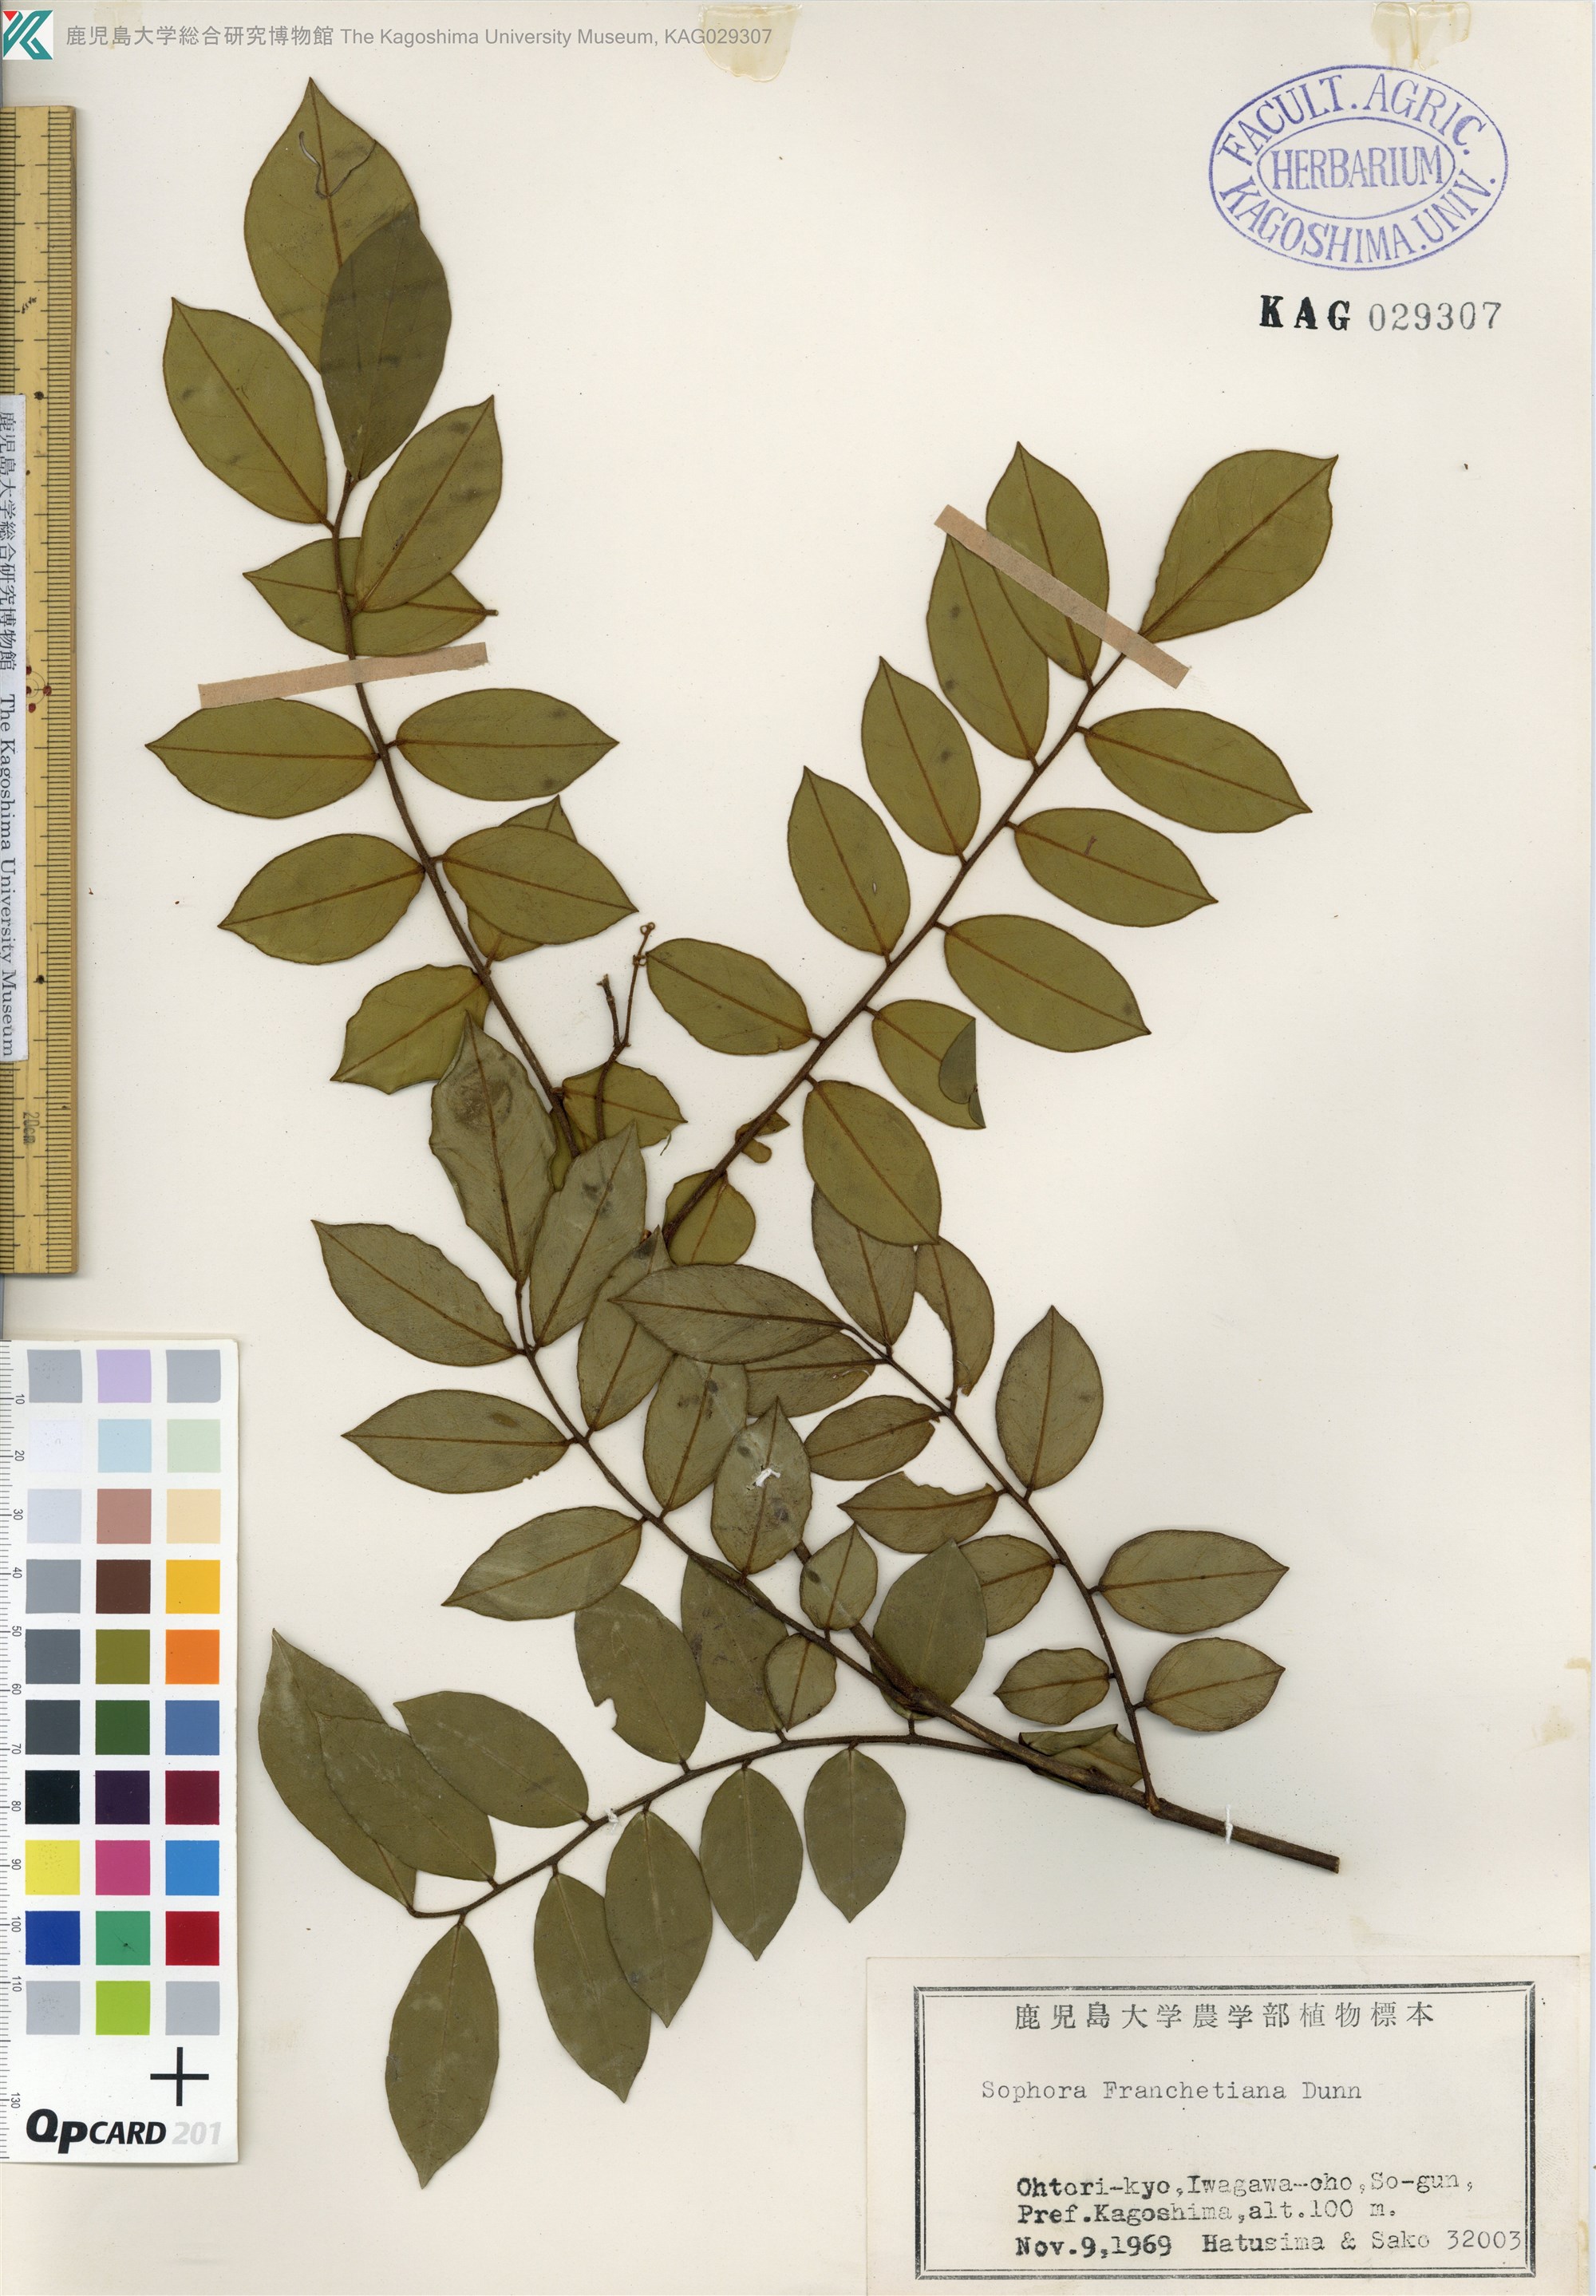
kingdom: Plantae
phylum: Tracheophyta
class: Magnoliopsida
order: Fabales
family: Fabaceae
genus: Sophora
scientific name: Sophora franchetiana
